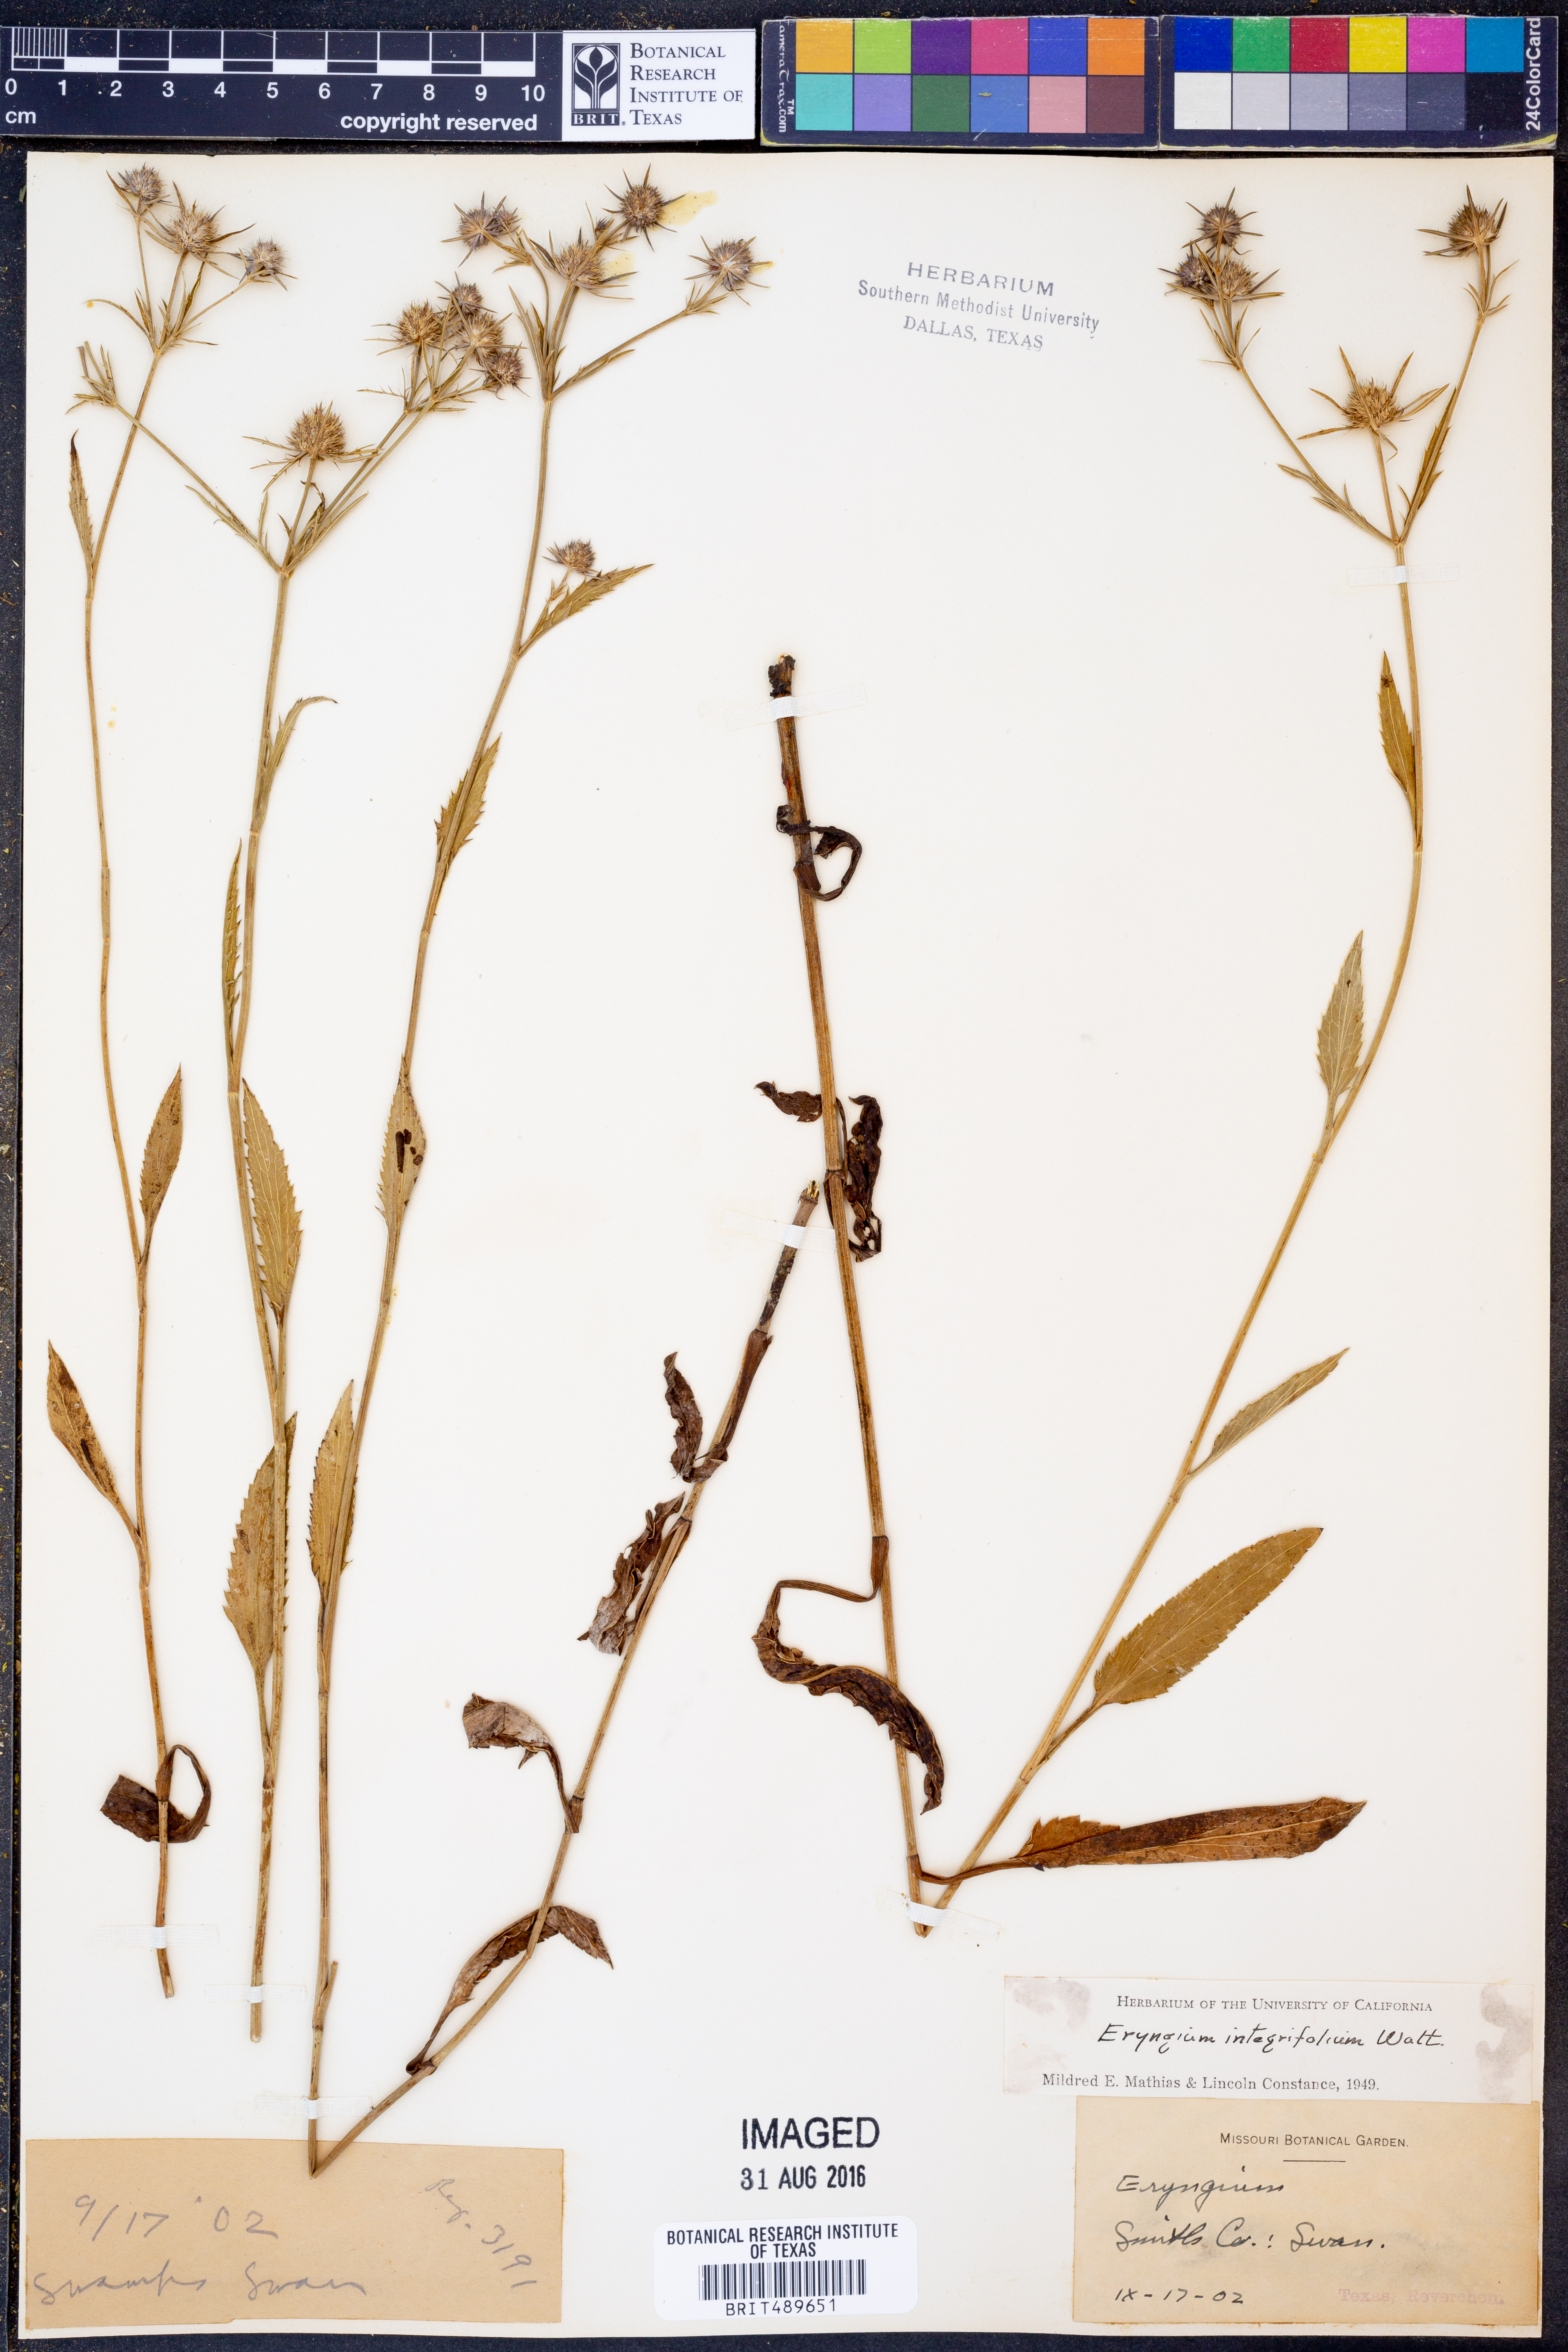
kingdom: Plantae
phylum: Tracheophyta
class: Magnoliopsida
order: Apiales
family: Apiaceae
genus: Eryngium
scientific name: Eryngium integrifolium
